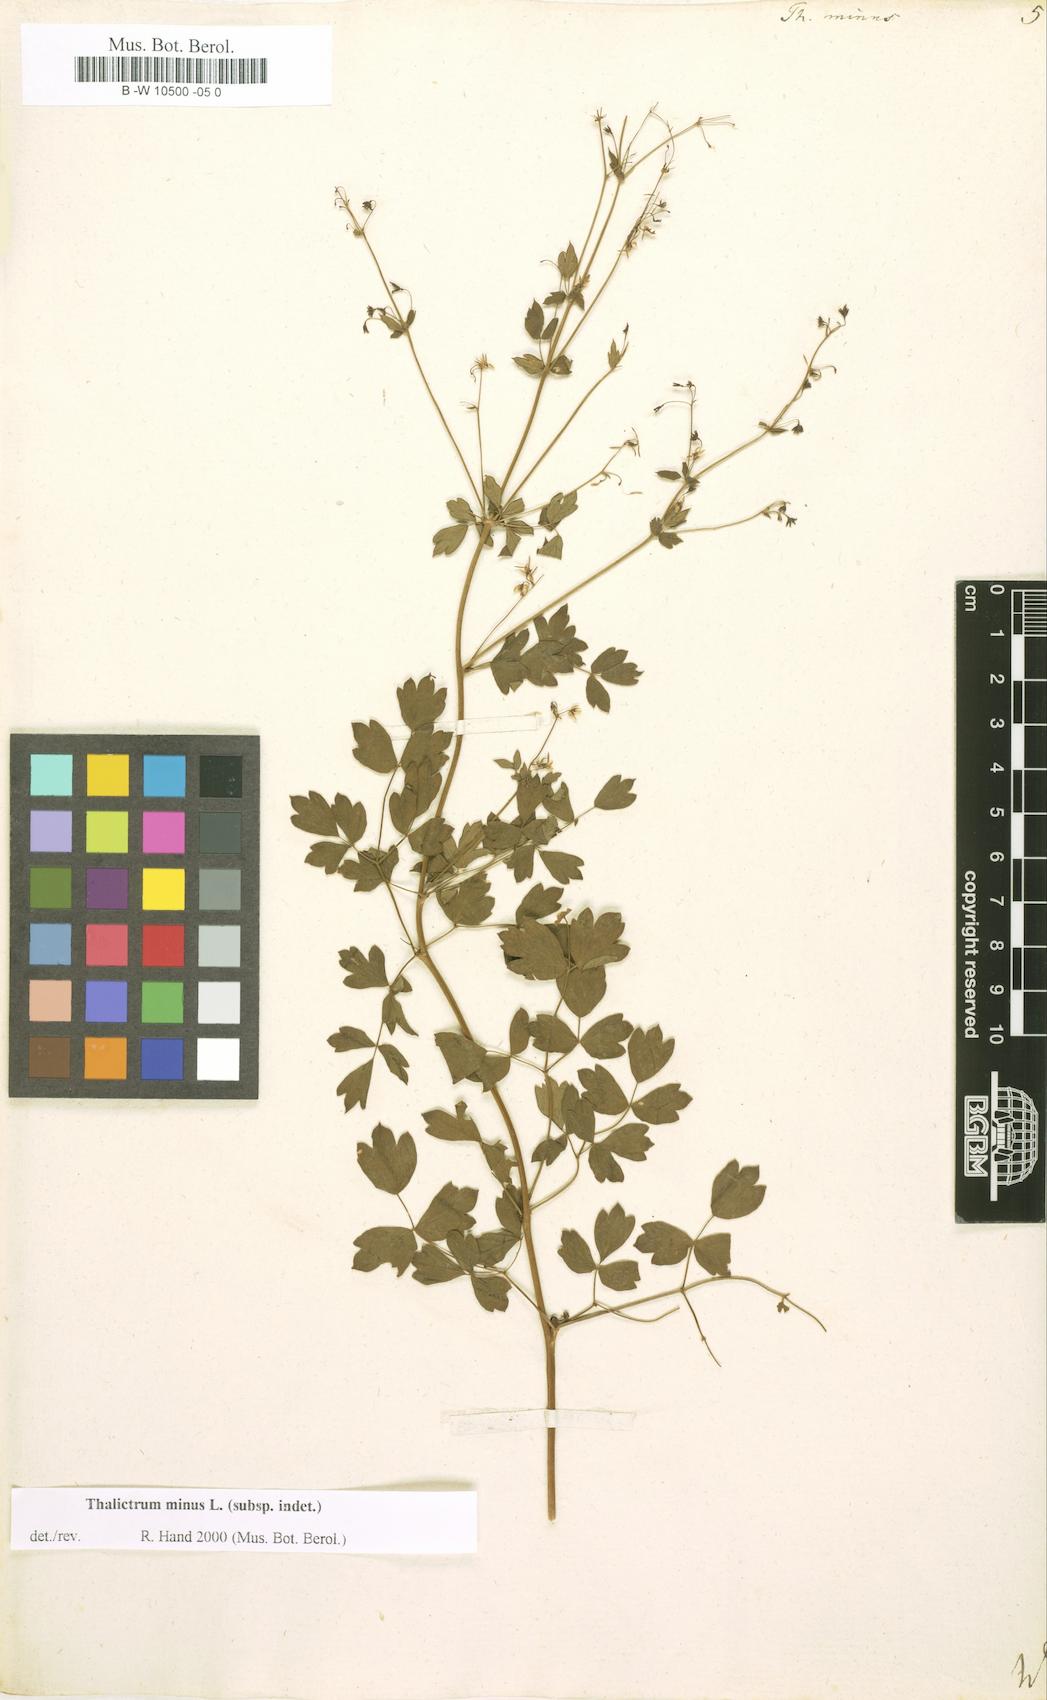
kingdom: Plantae
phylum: Tracheophyta
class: Magnoliopsida
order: Ranunculales
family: Ranunculaceae
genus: Thalictrum
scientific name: Thalictrum minus
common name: Lesser meadow-rue
